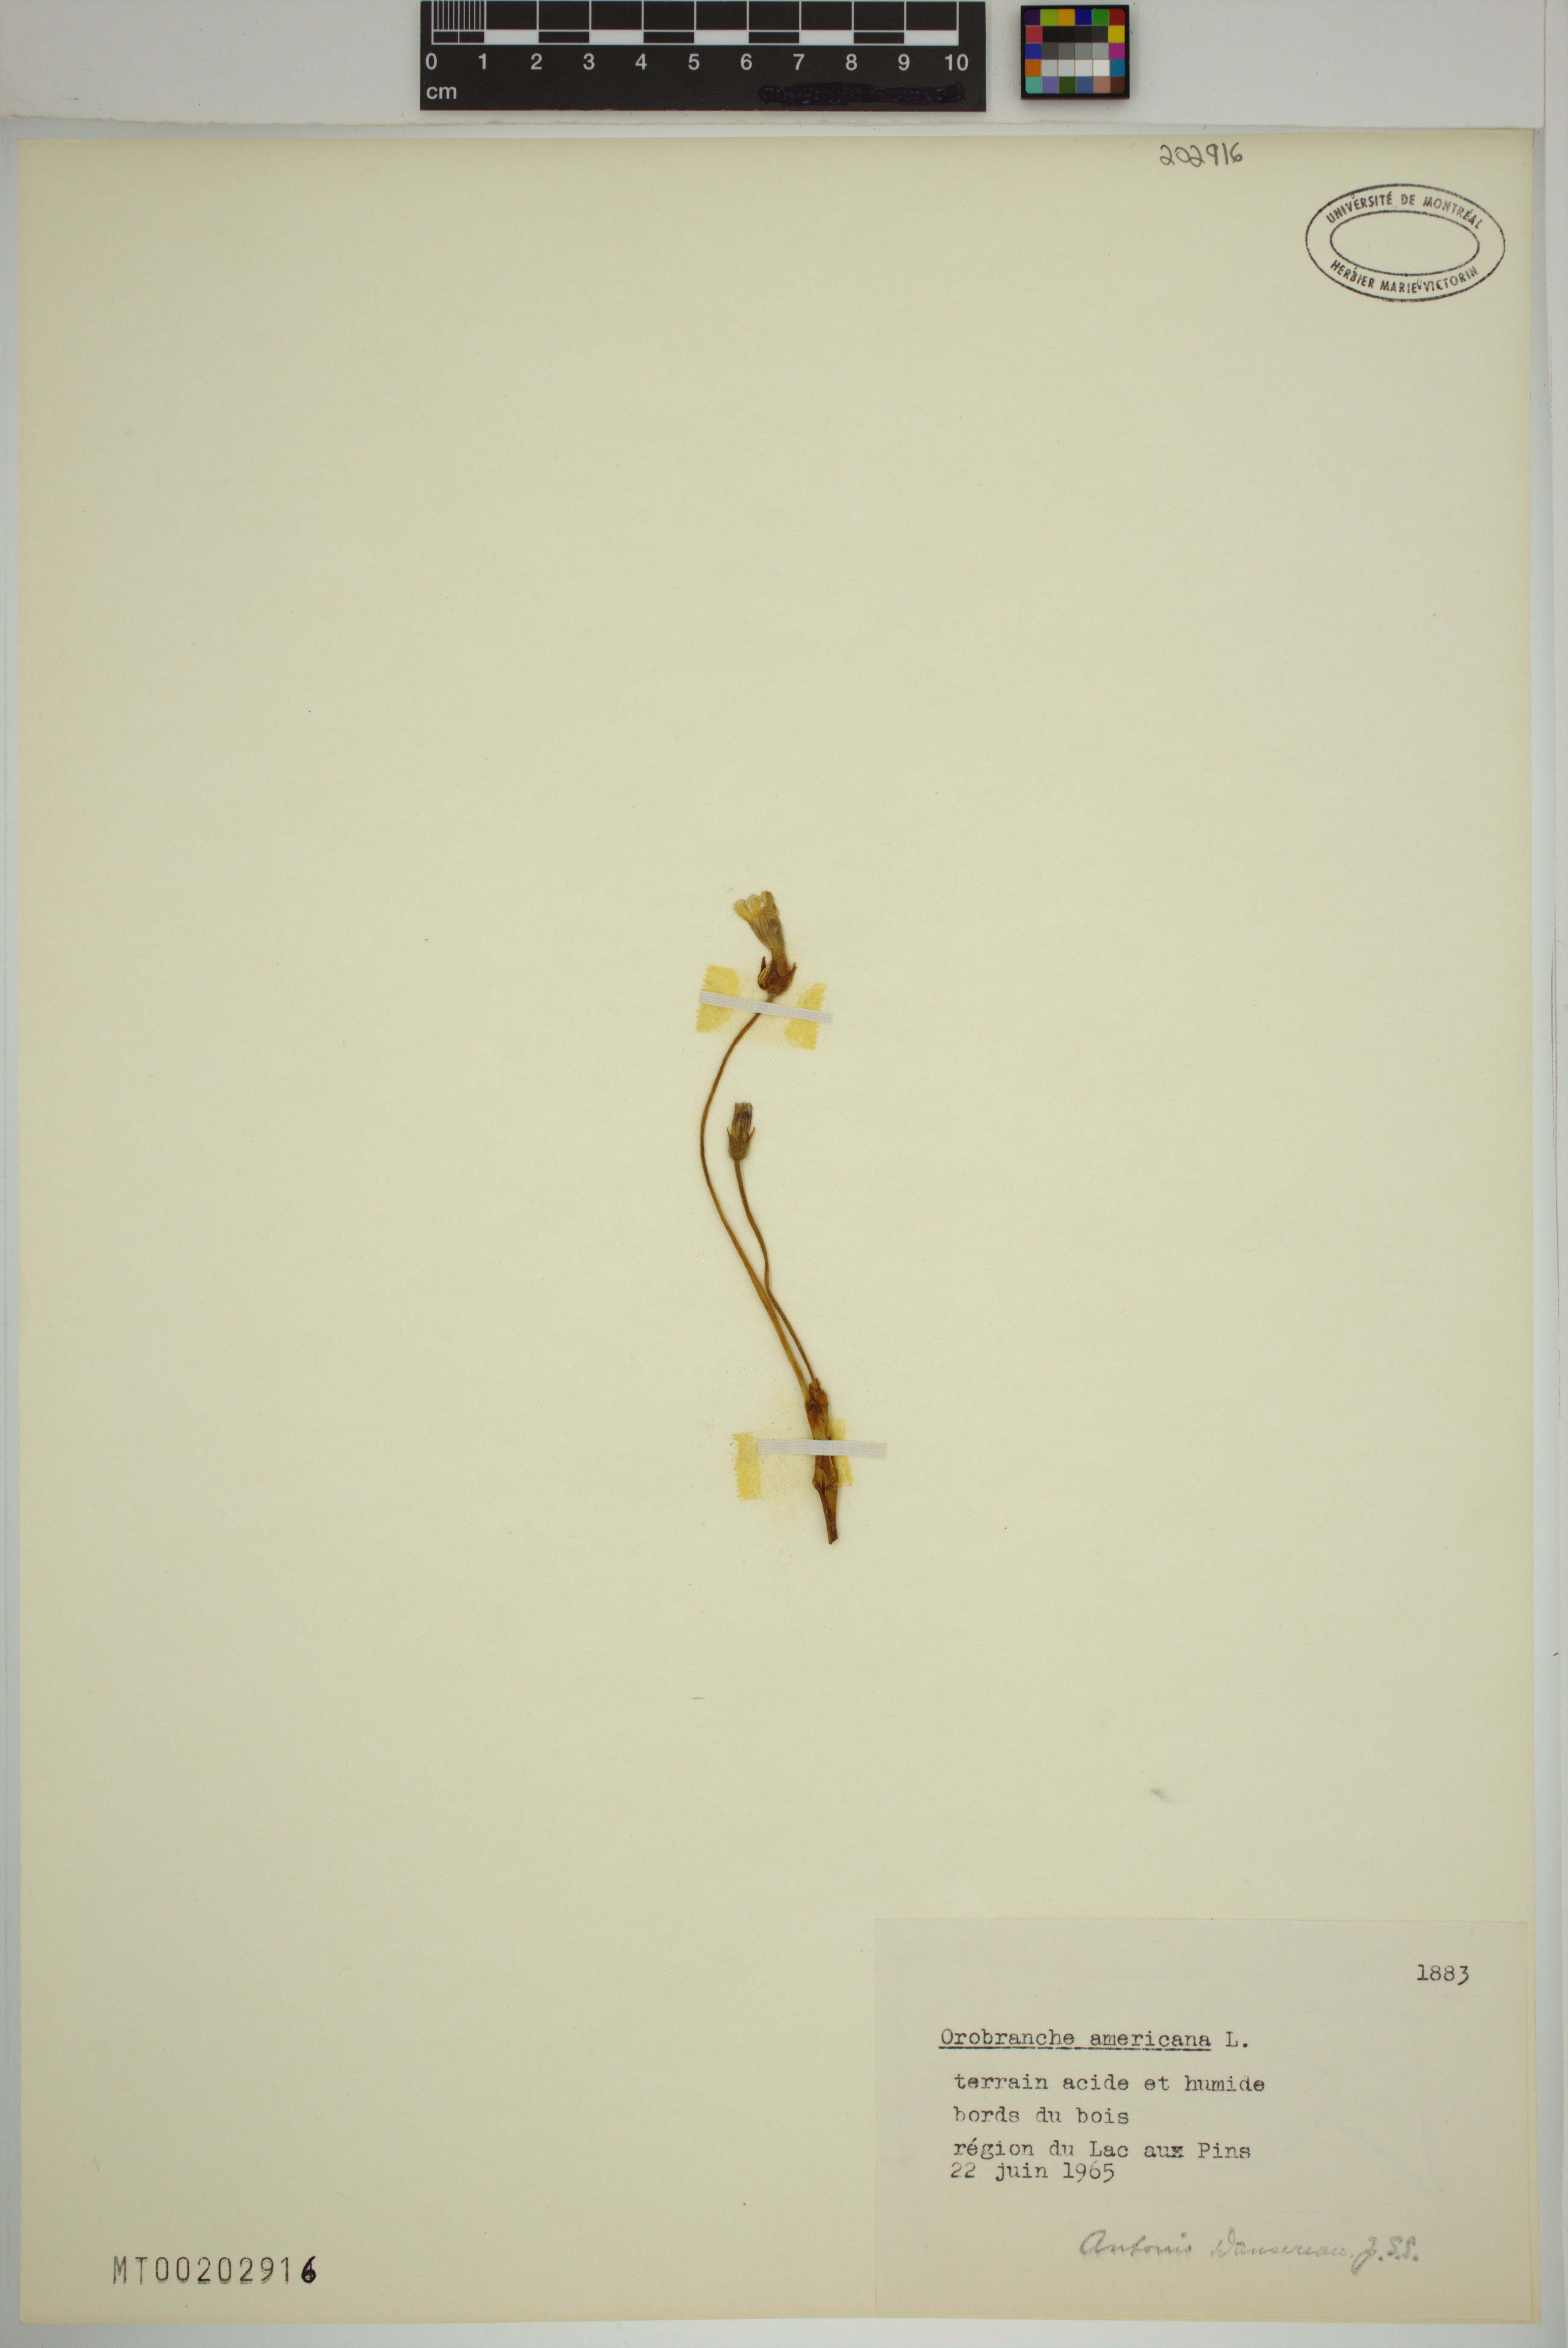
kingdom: Plantae
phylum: Tracheophyta
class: Magnoliopsida
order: Lamiales
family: Orobanchaceae
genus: Aphyllon
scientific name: Aphyllon uniflorum
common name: One-flowered broomrape
